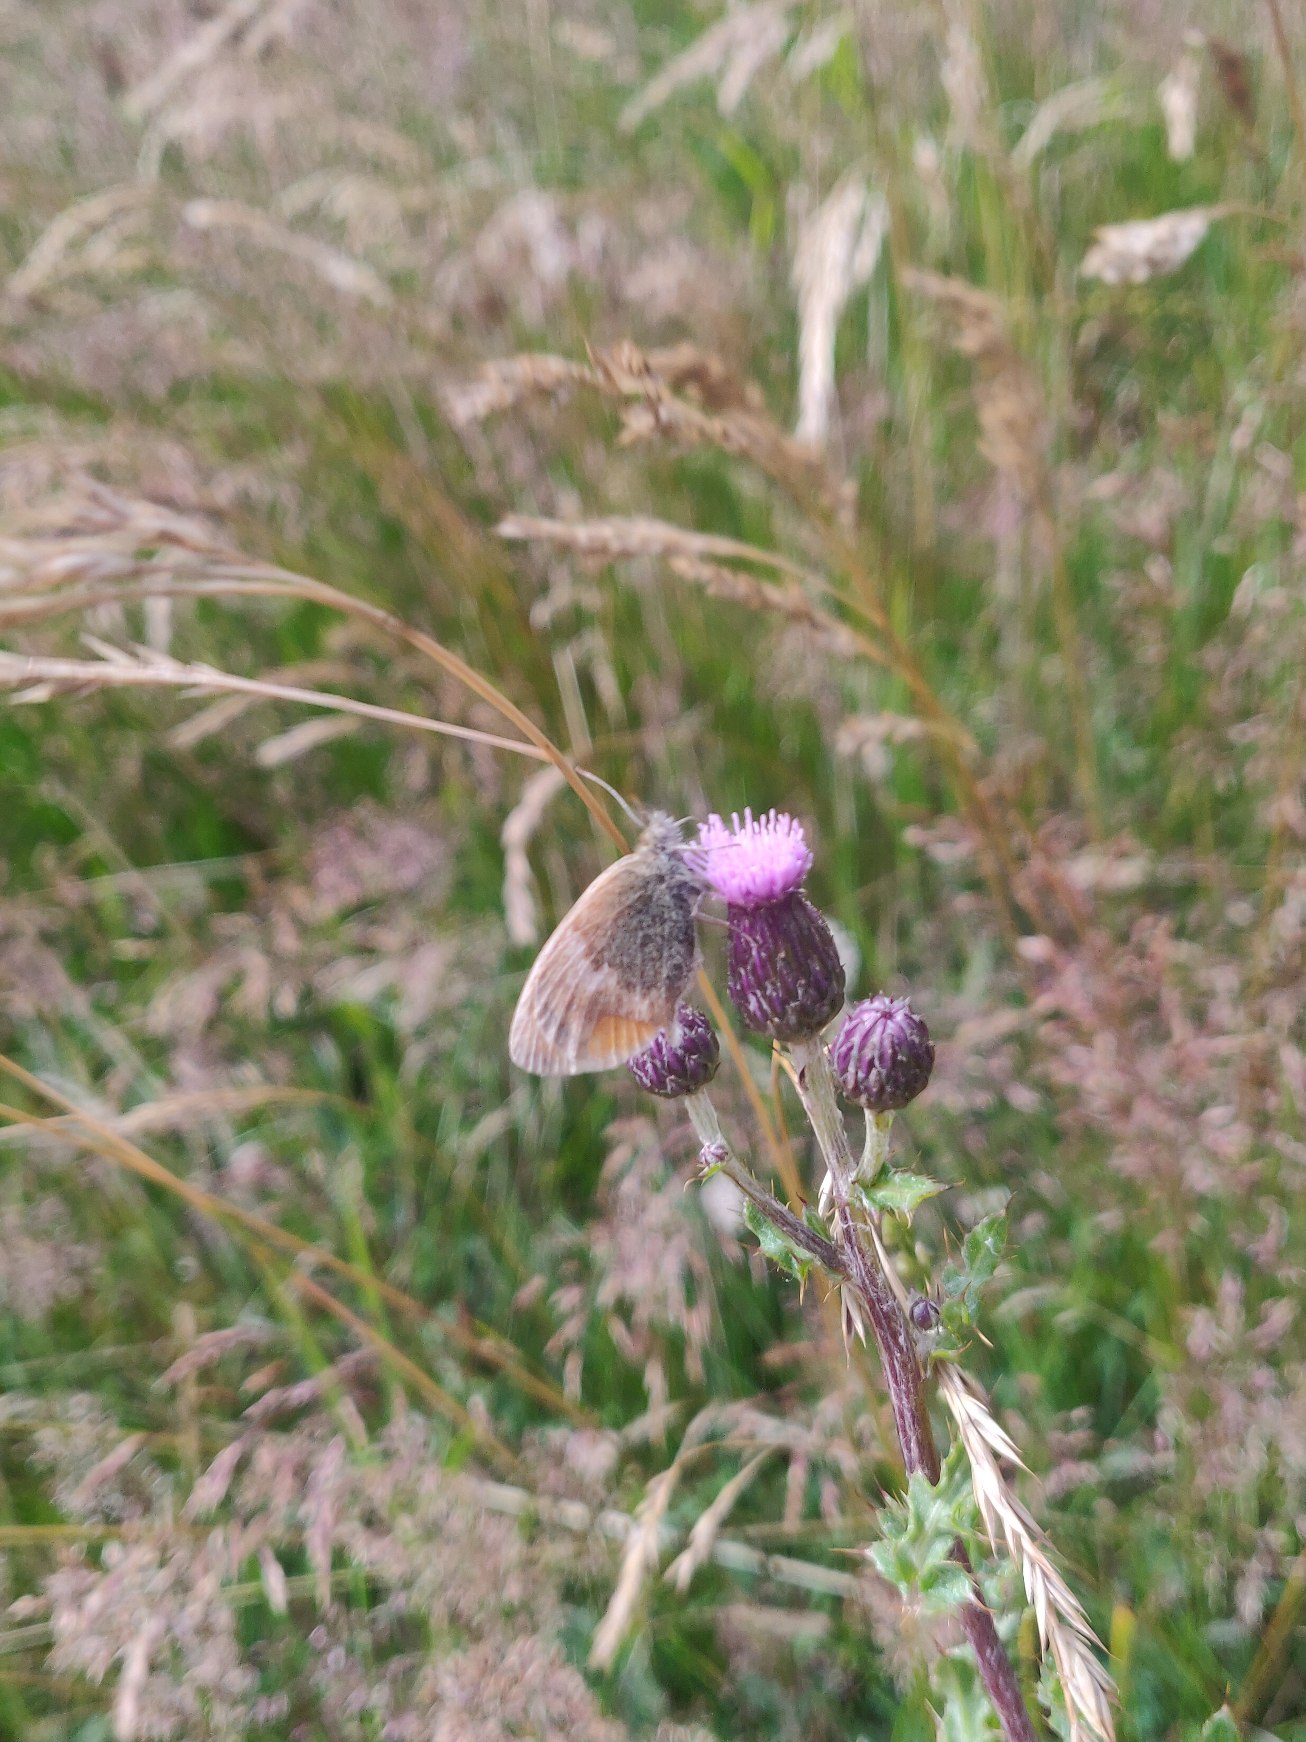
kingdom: Animalia
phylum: Arthropoda
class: Insecta
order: Lepidoptera
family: Nymphalidae
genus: Coenonympha
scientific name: Coenonympha pamphilus
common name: Okkergul randøje
